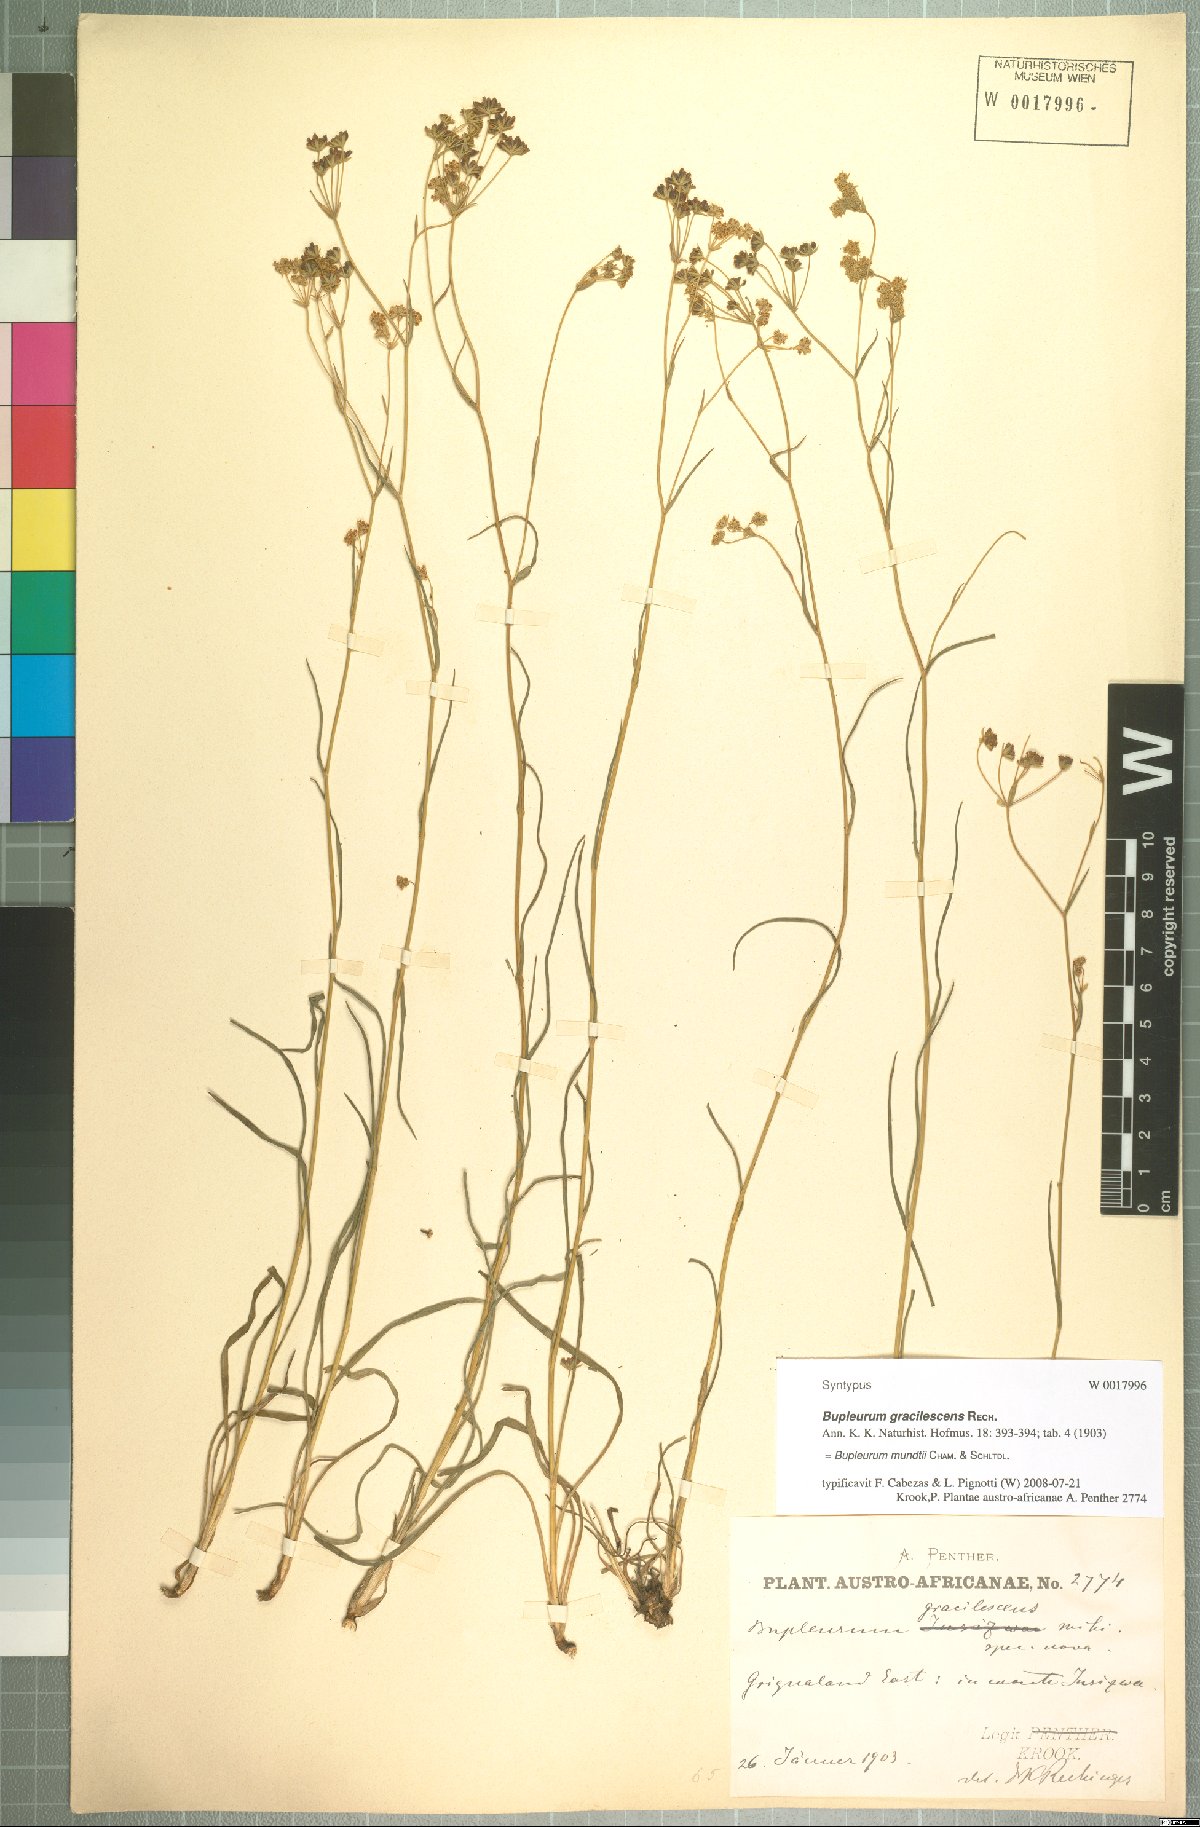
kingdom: Plantae
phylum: Tracheophyta
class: Magnoliopsida
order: Apiales
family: Apiaceae
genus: Bupleurum
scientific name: Bupleurum mundtii
